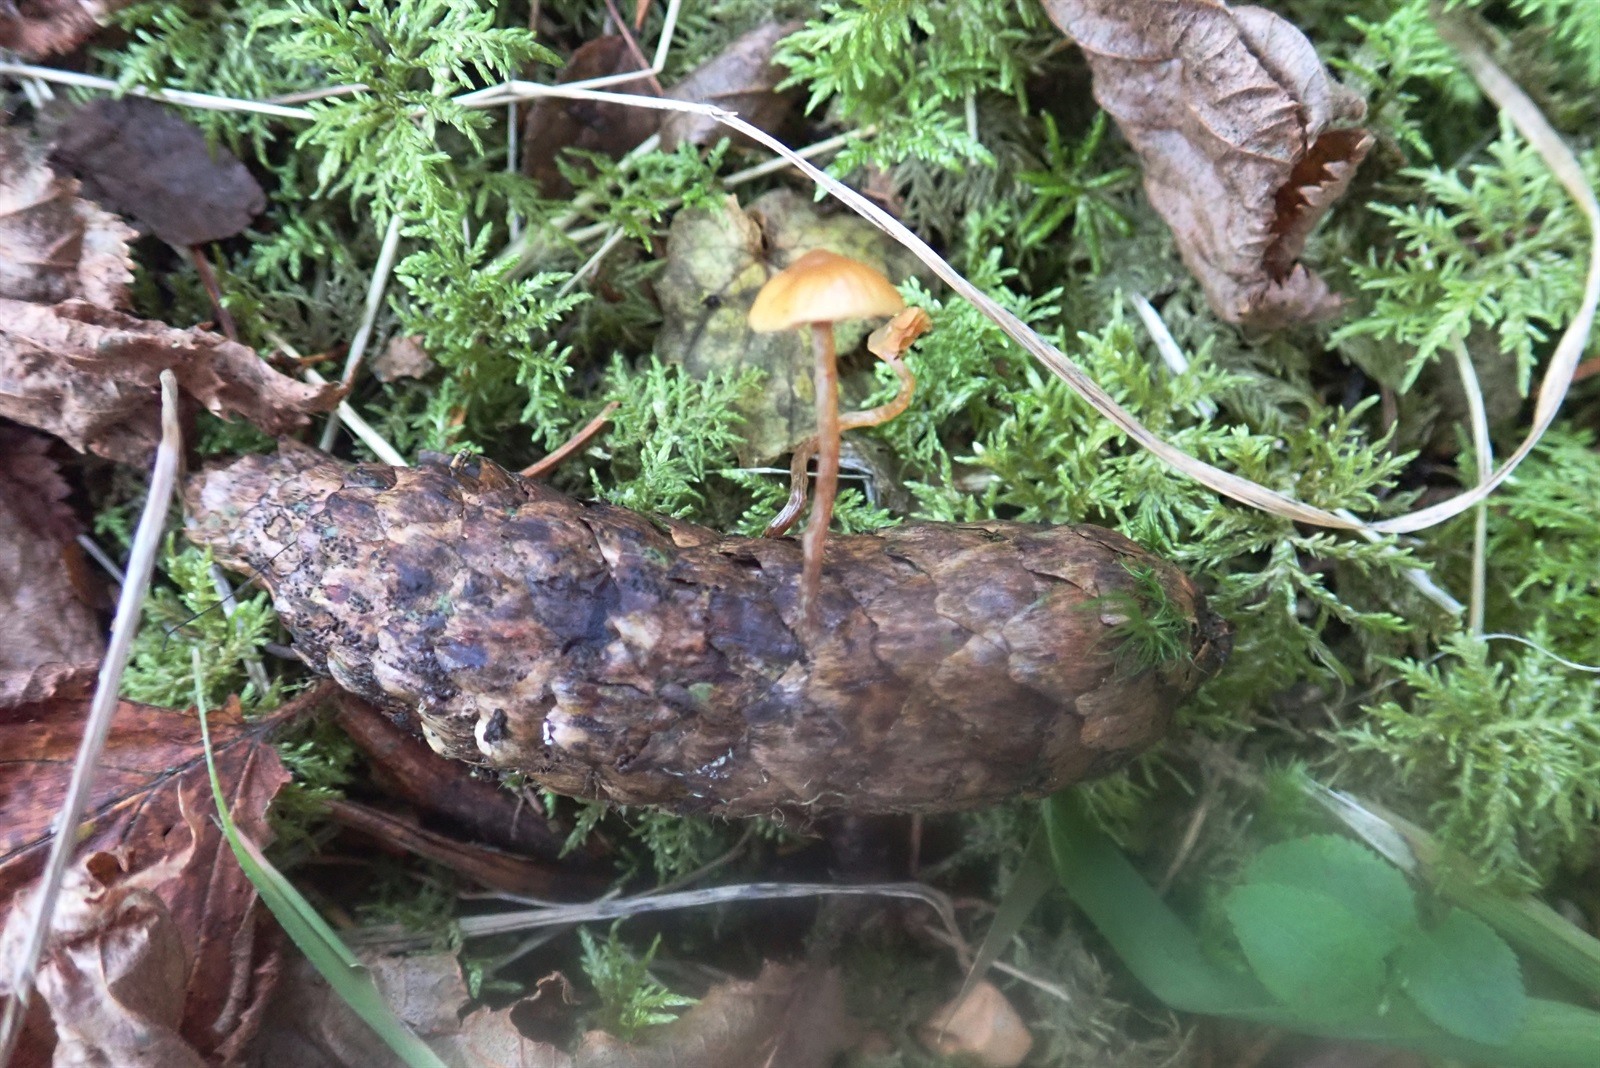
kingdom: Fungi
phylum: Basidiomycota
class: Agaricomycetes
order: Agaricales
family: Hymenogastraceae
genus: Galerina
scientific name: Galerina minima
